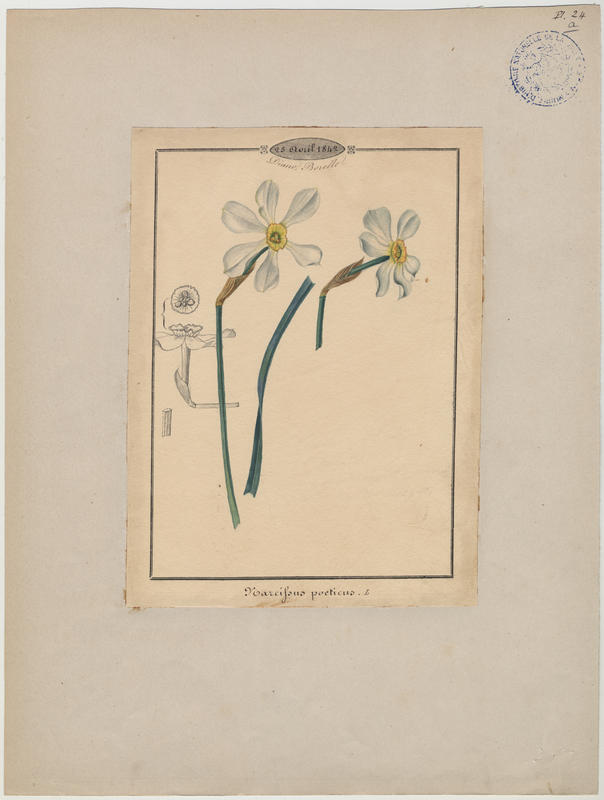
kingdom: Plantae
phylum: Tracheophyta
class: Liliopsida
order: Asparagales
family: Amaryllidaceae
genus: Narcissus
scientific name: Narcissus poeticus
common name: Pheasant's-eye daffodil
